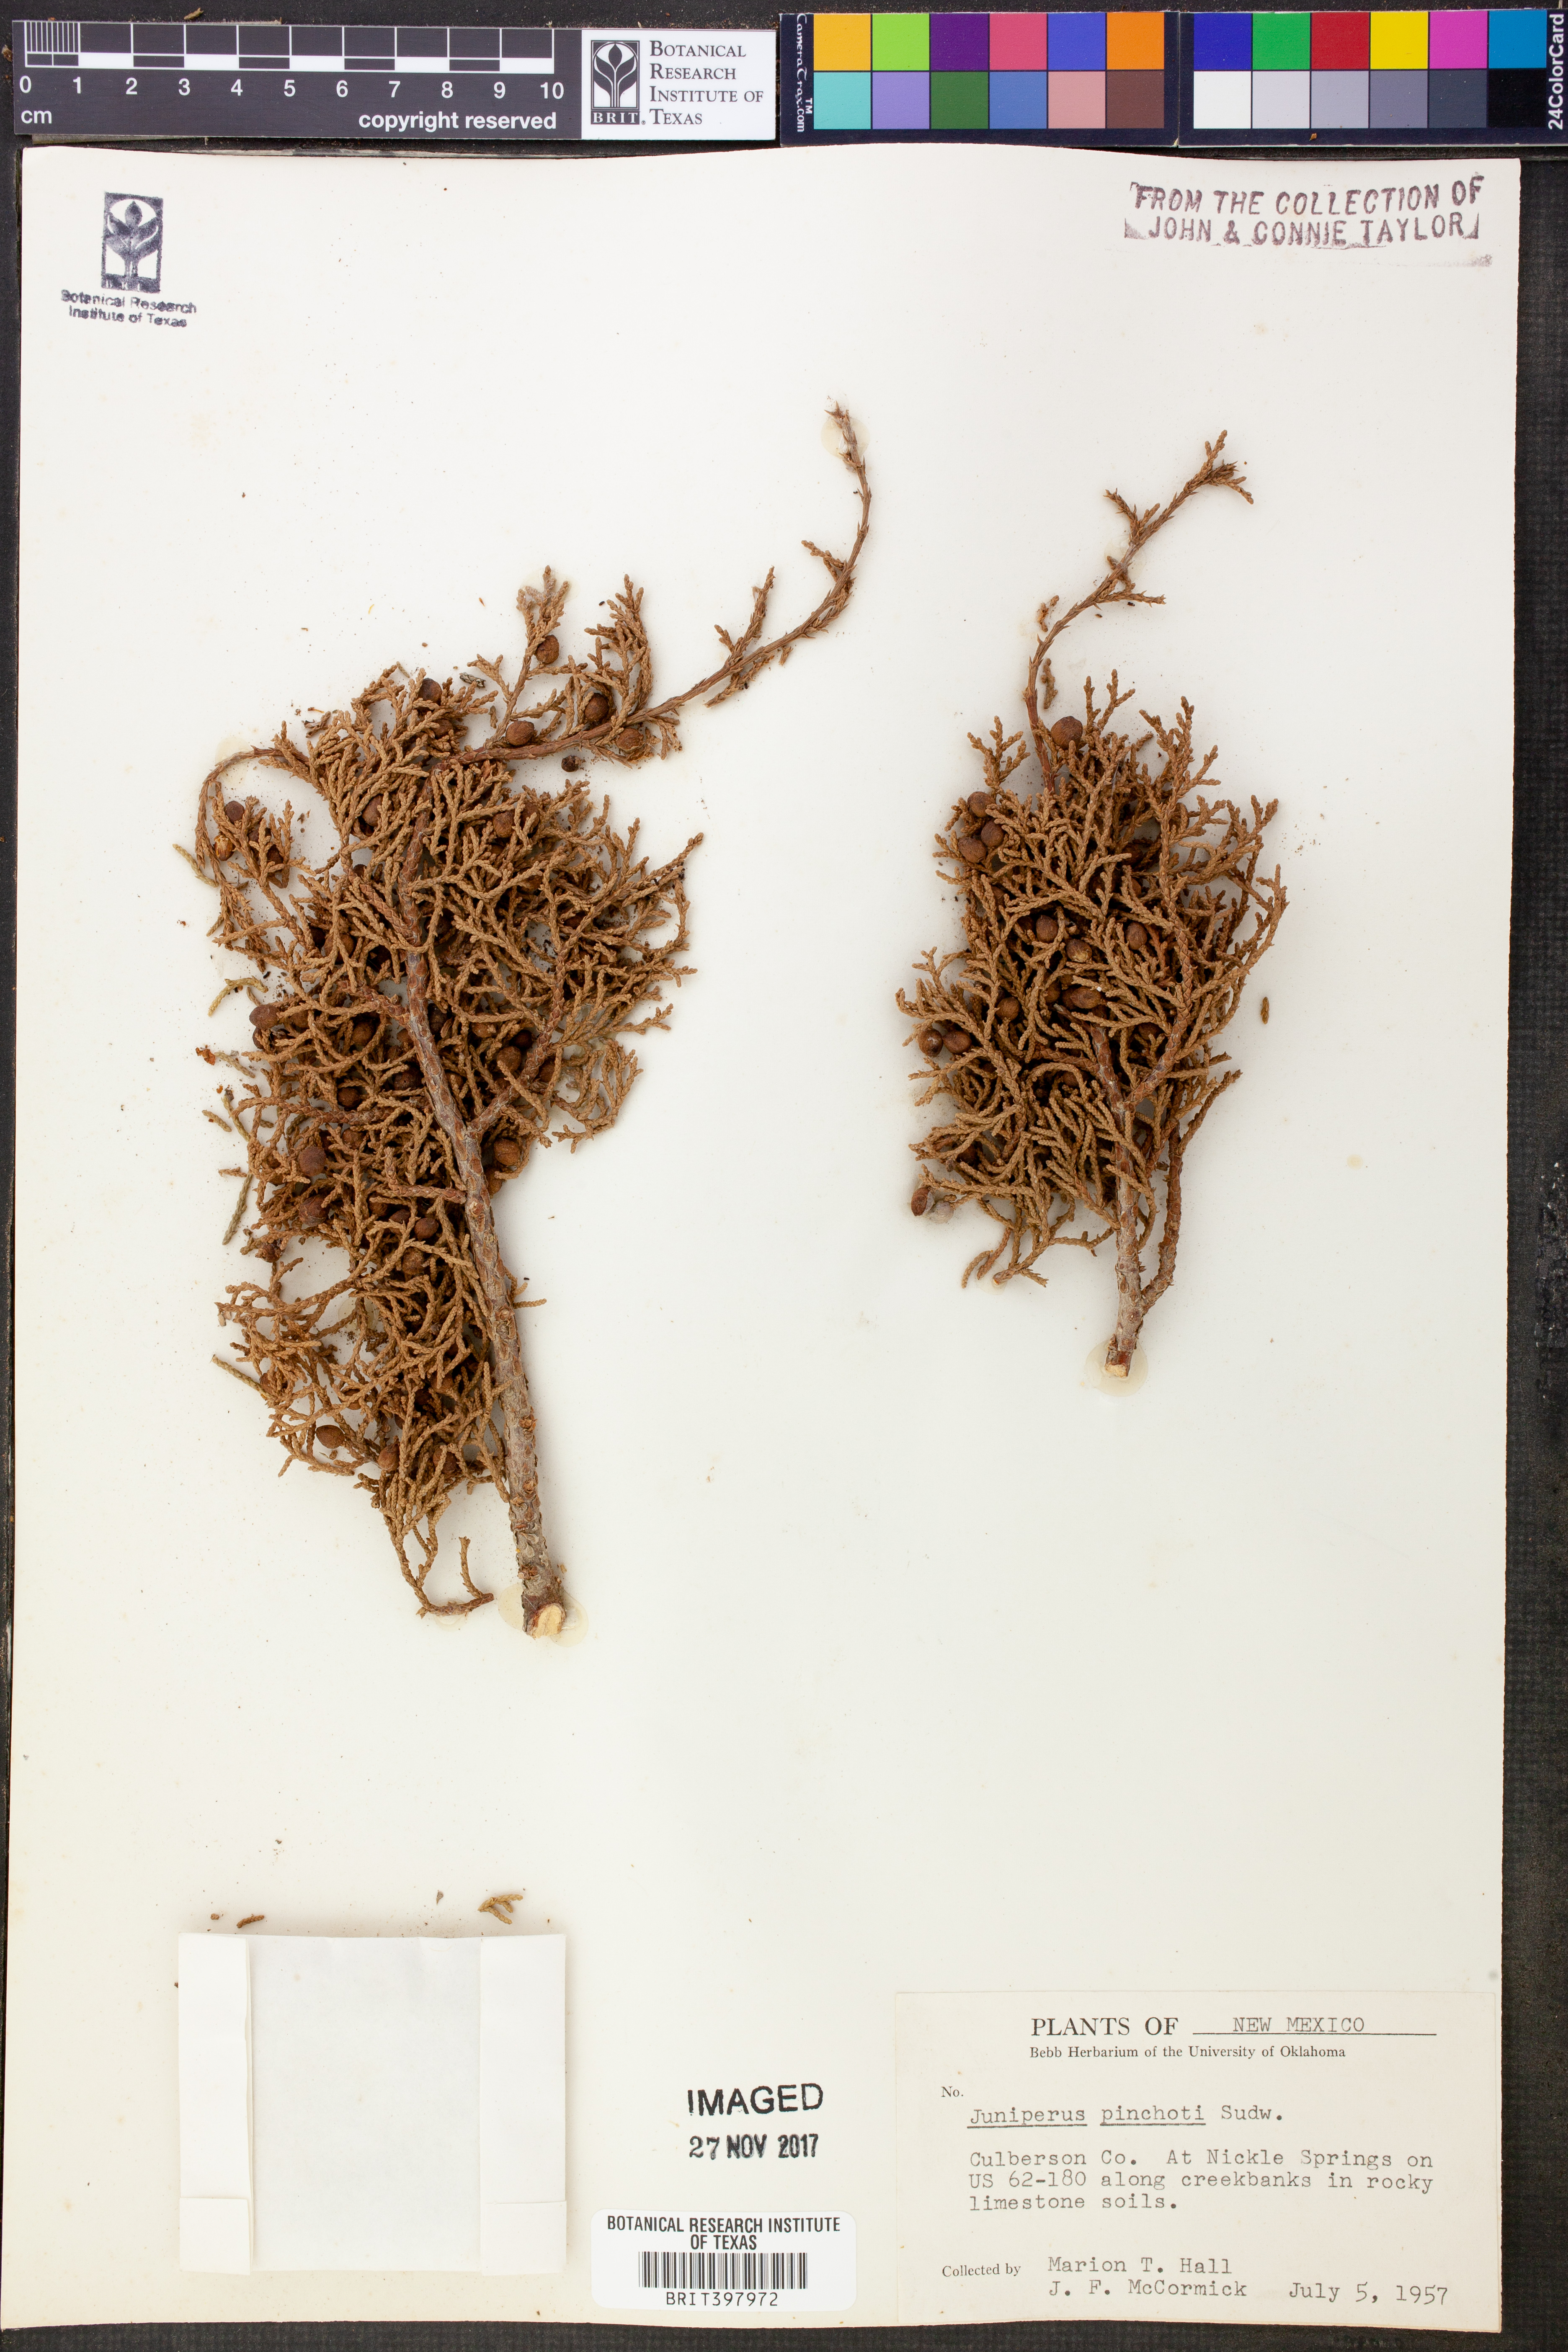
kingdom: Plantae
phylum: Tracheophyta
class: Pinopsida
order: Pinales
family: Cupressaceae
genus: Juniperus
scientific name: Juniperus pinchotii
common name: Pinchot juniper
